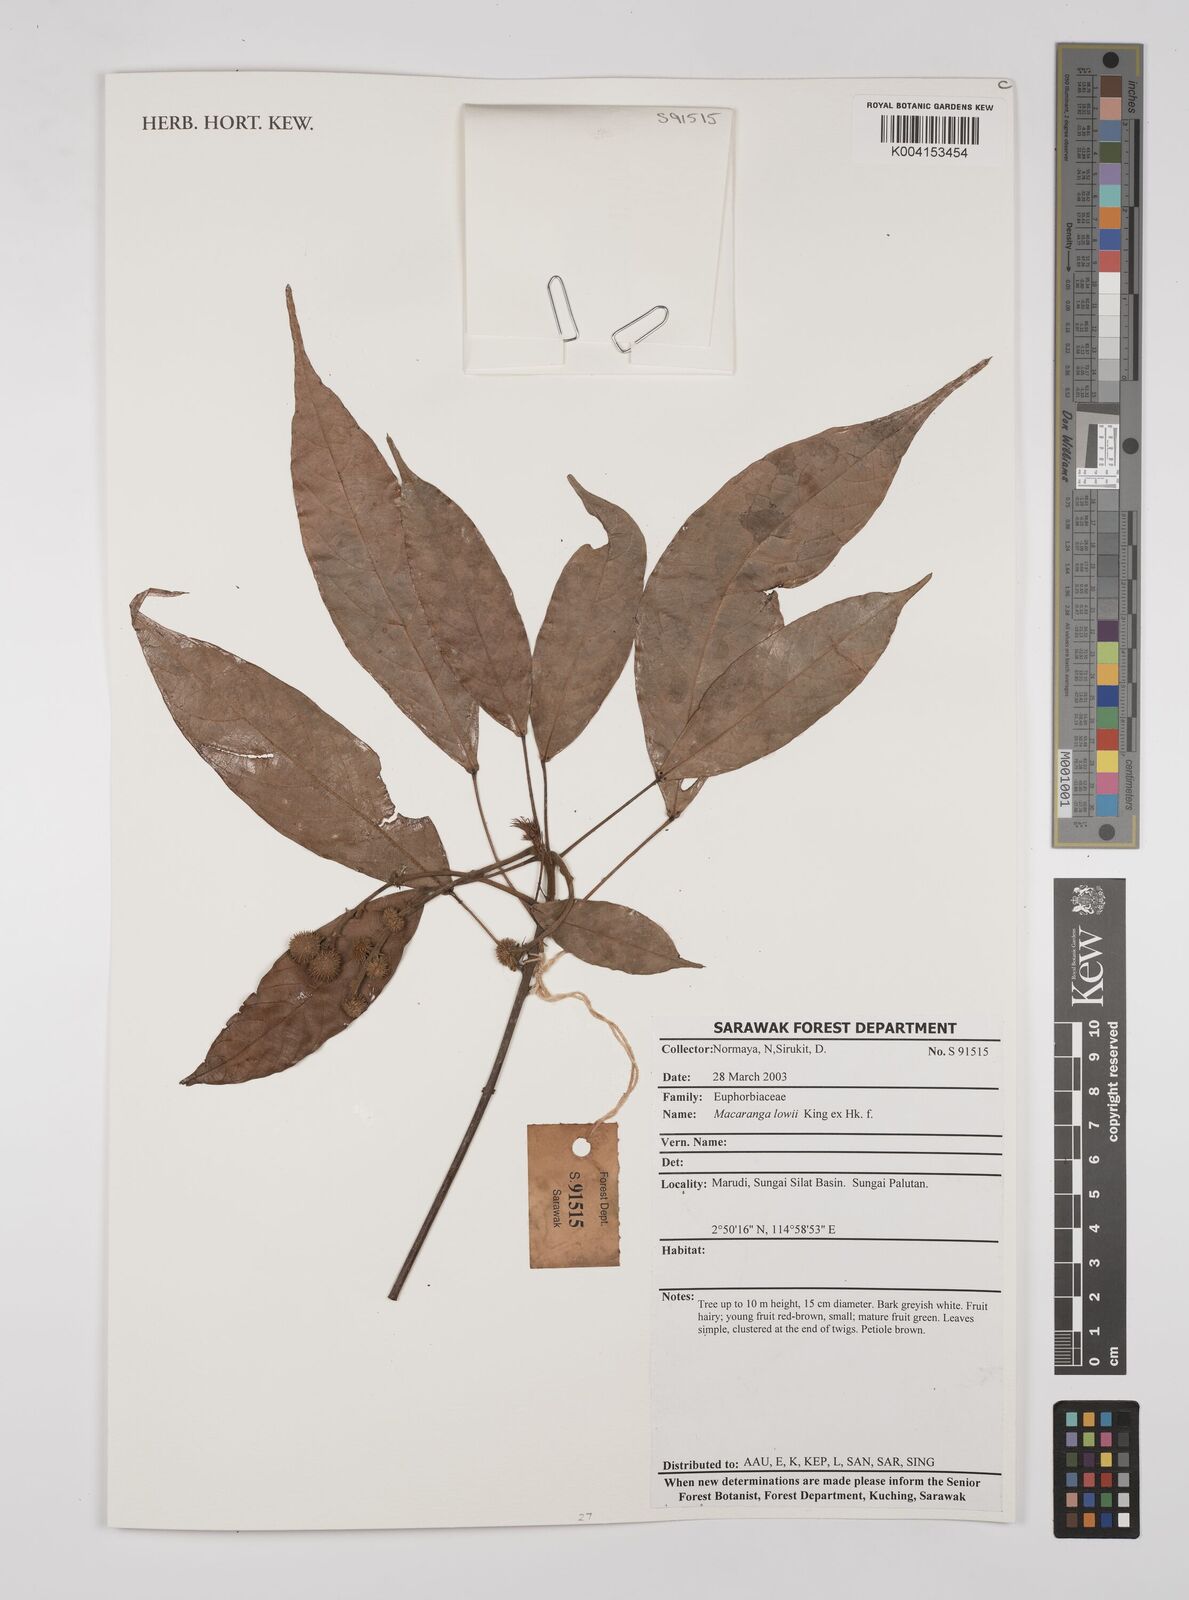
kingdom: Plantae
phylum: Tracheophyta
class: Magnoliopsida
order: Malpighiales
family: Euphorbiaceae
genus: Macaranga
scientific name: Macaranga lowii
